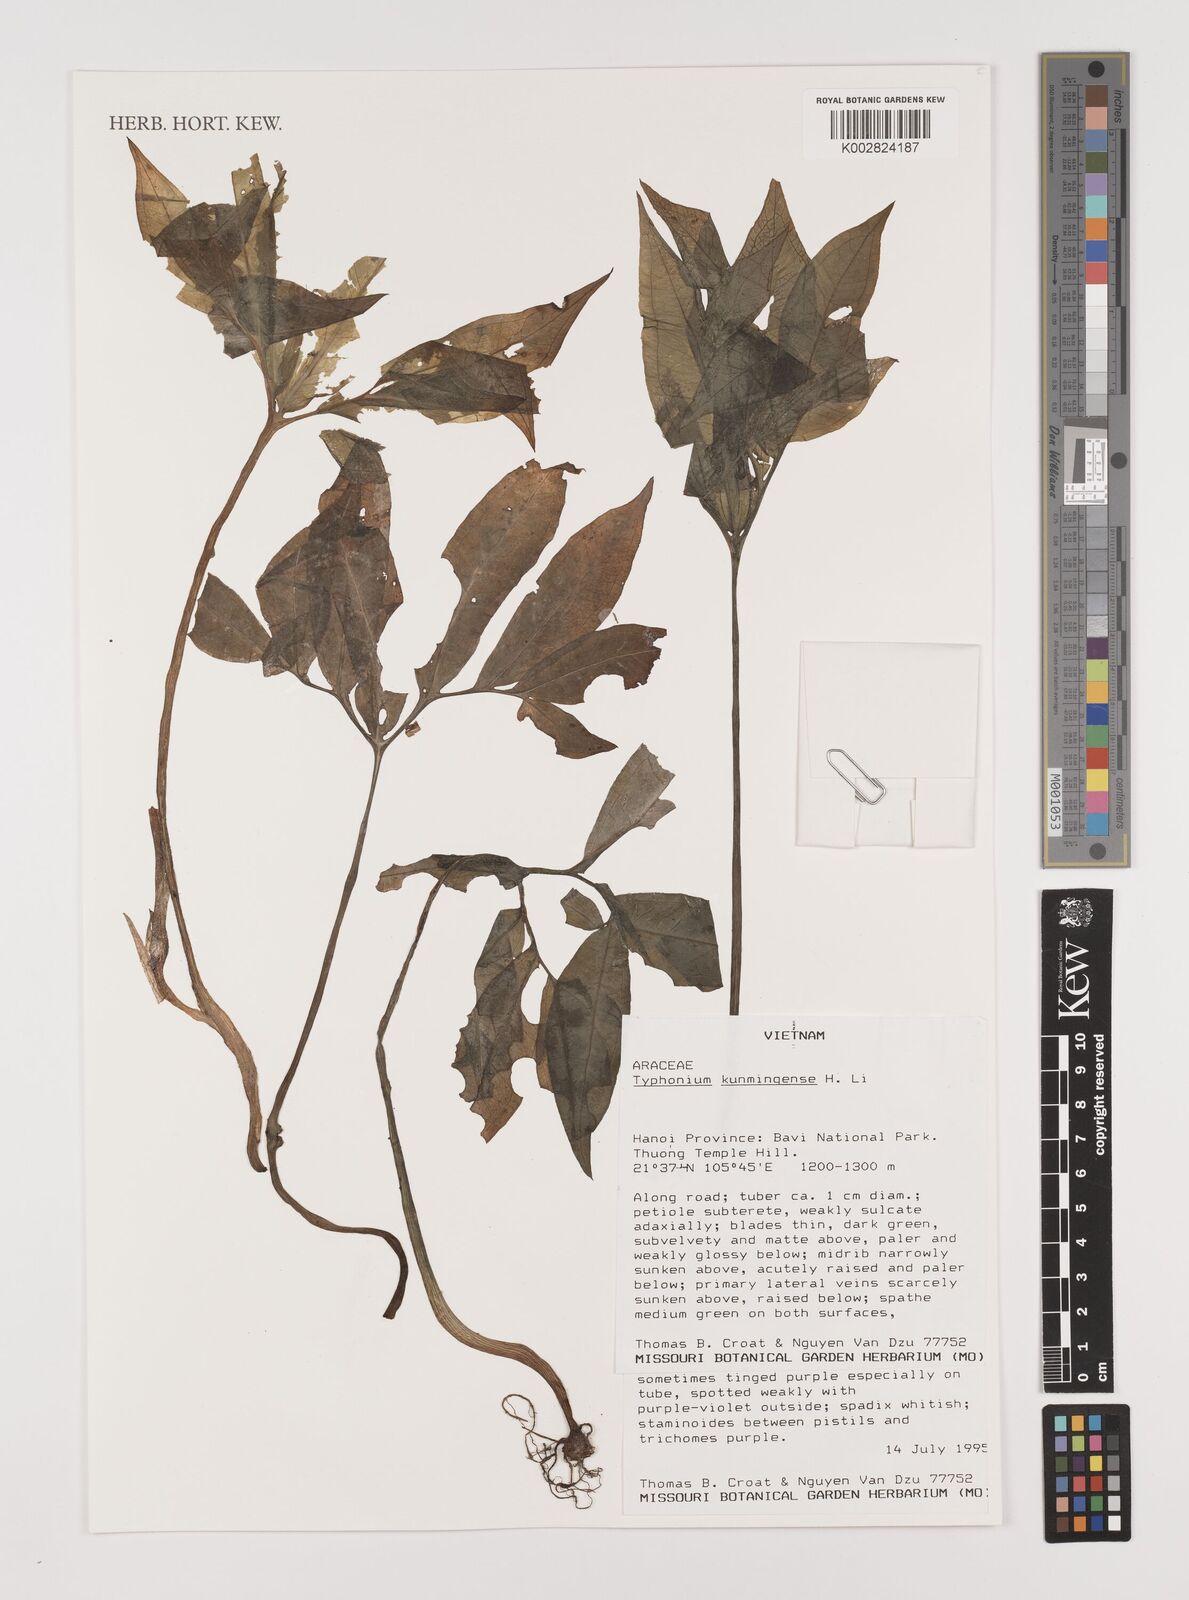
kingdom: Plantae
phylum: Tracheophyta
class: Liliopsida
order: Alismatales
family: Araceae
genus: Sauromatum
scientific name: Sauromatum horsfieldii
